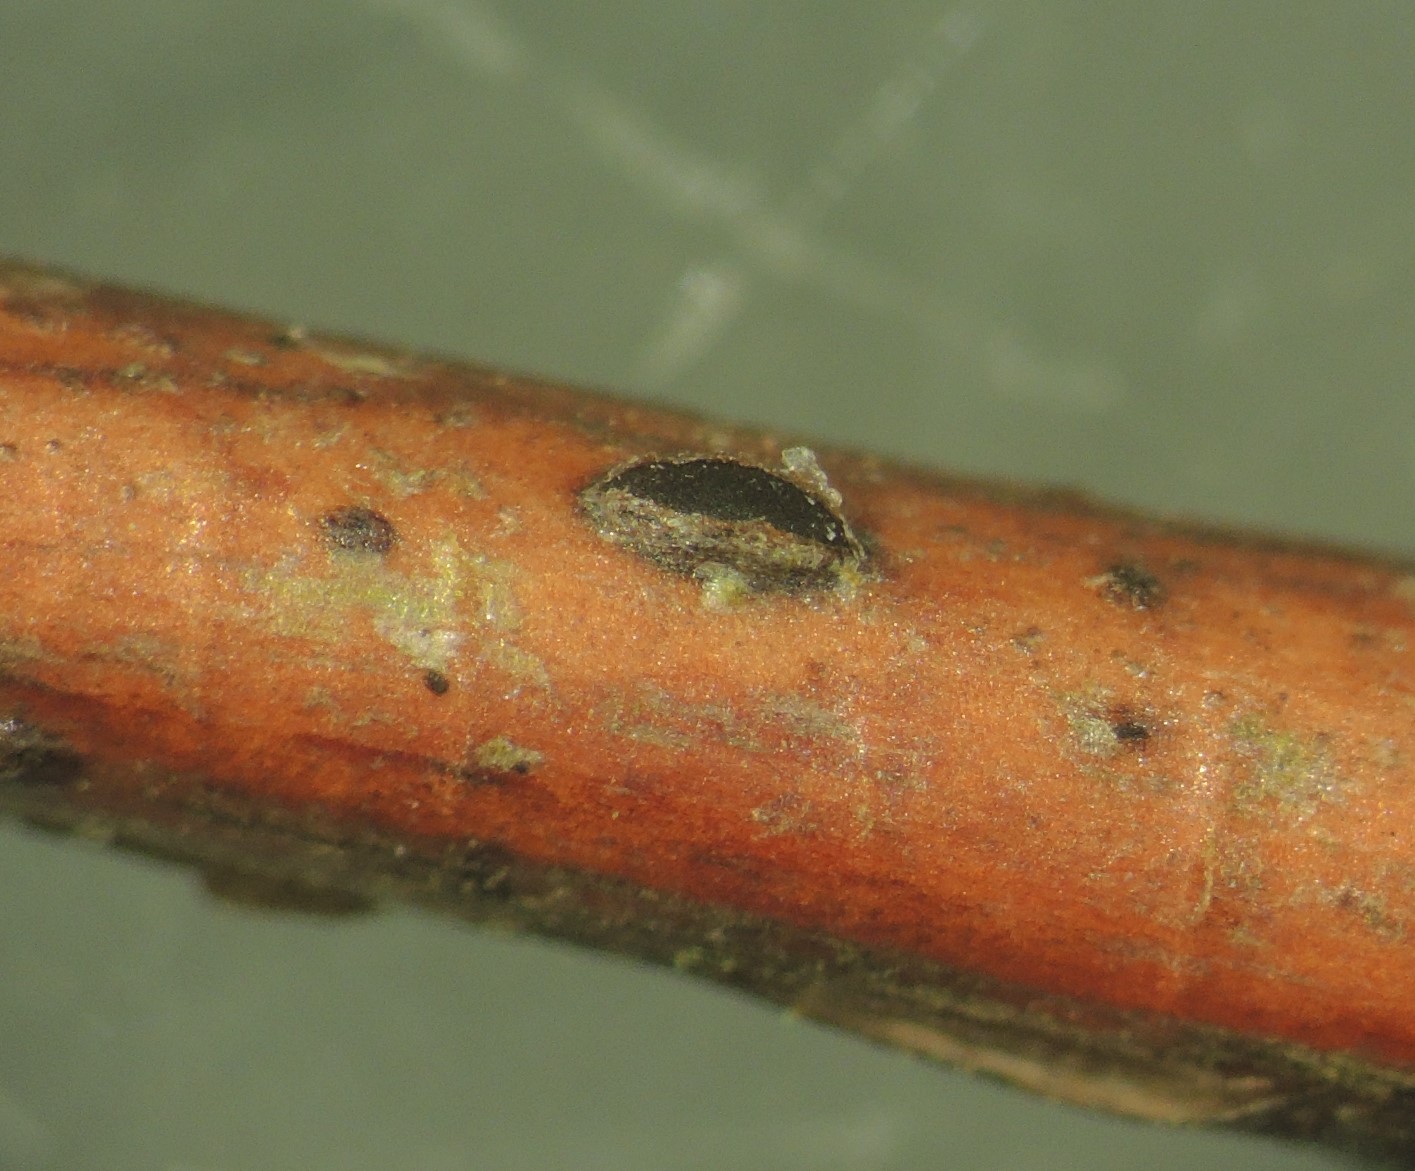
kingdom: Fungi
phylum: Ascomycota
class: Leotiomycetes
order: Rhytismatales
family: Rhytismataceae
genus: Sporomega
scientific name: Sporomega degenerans
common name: bølle-sprækkeskive
